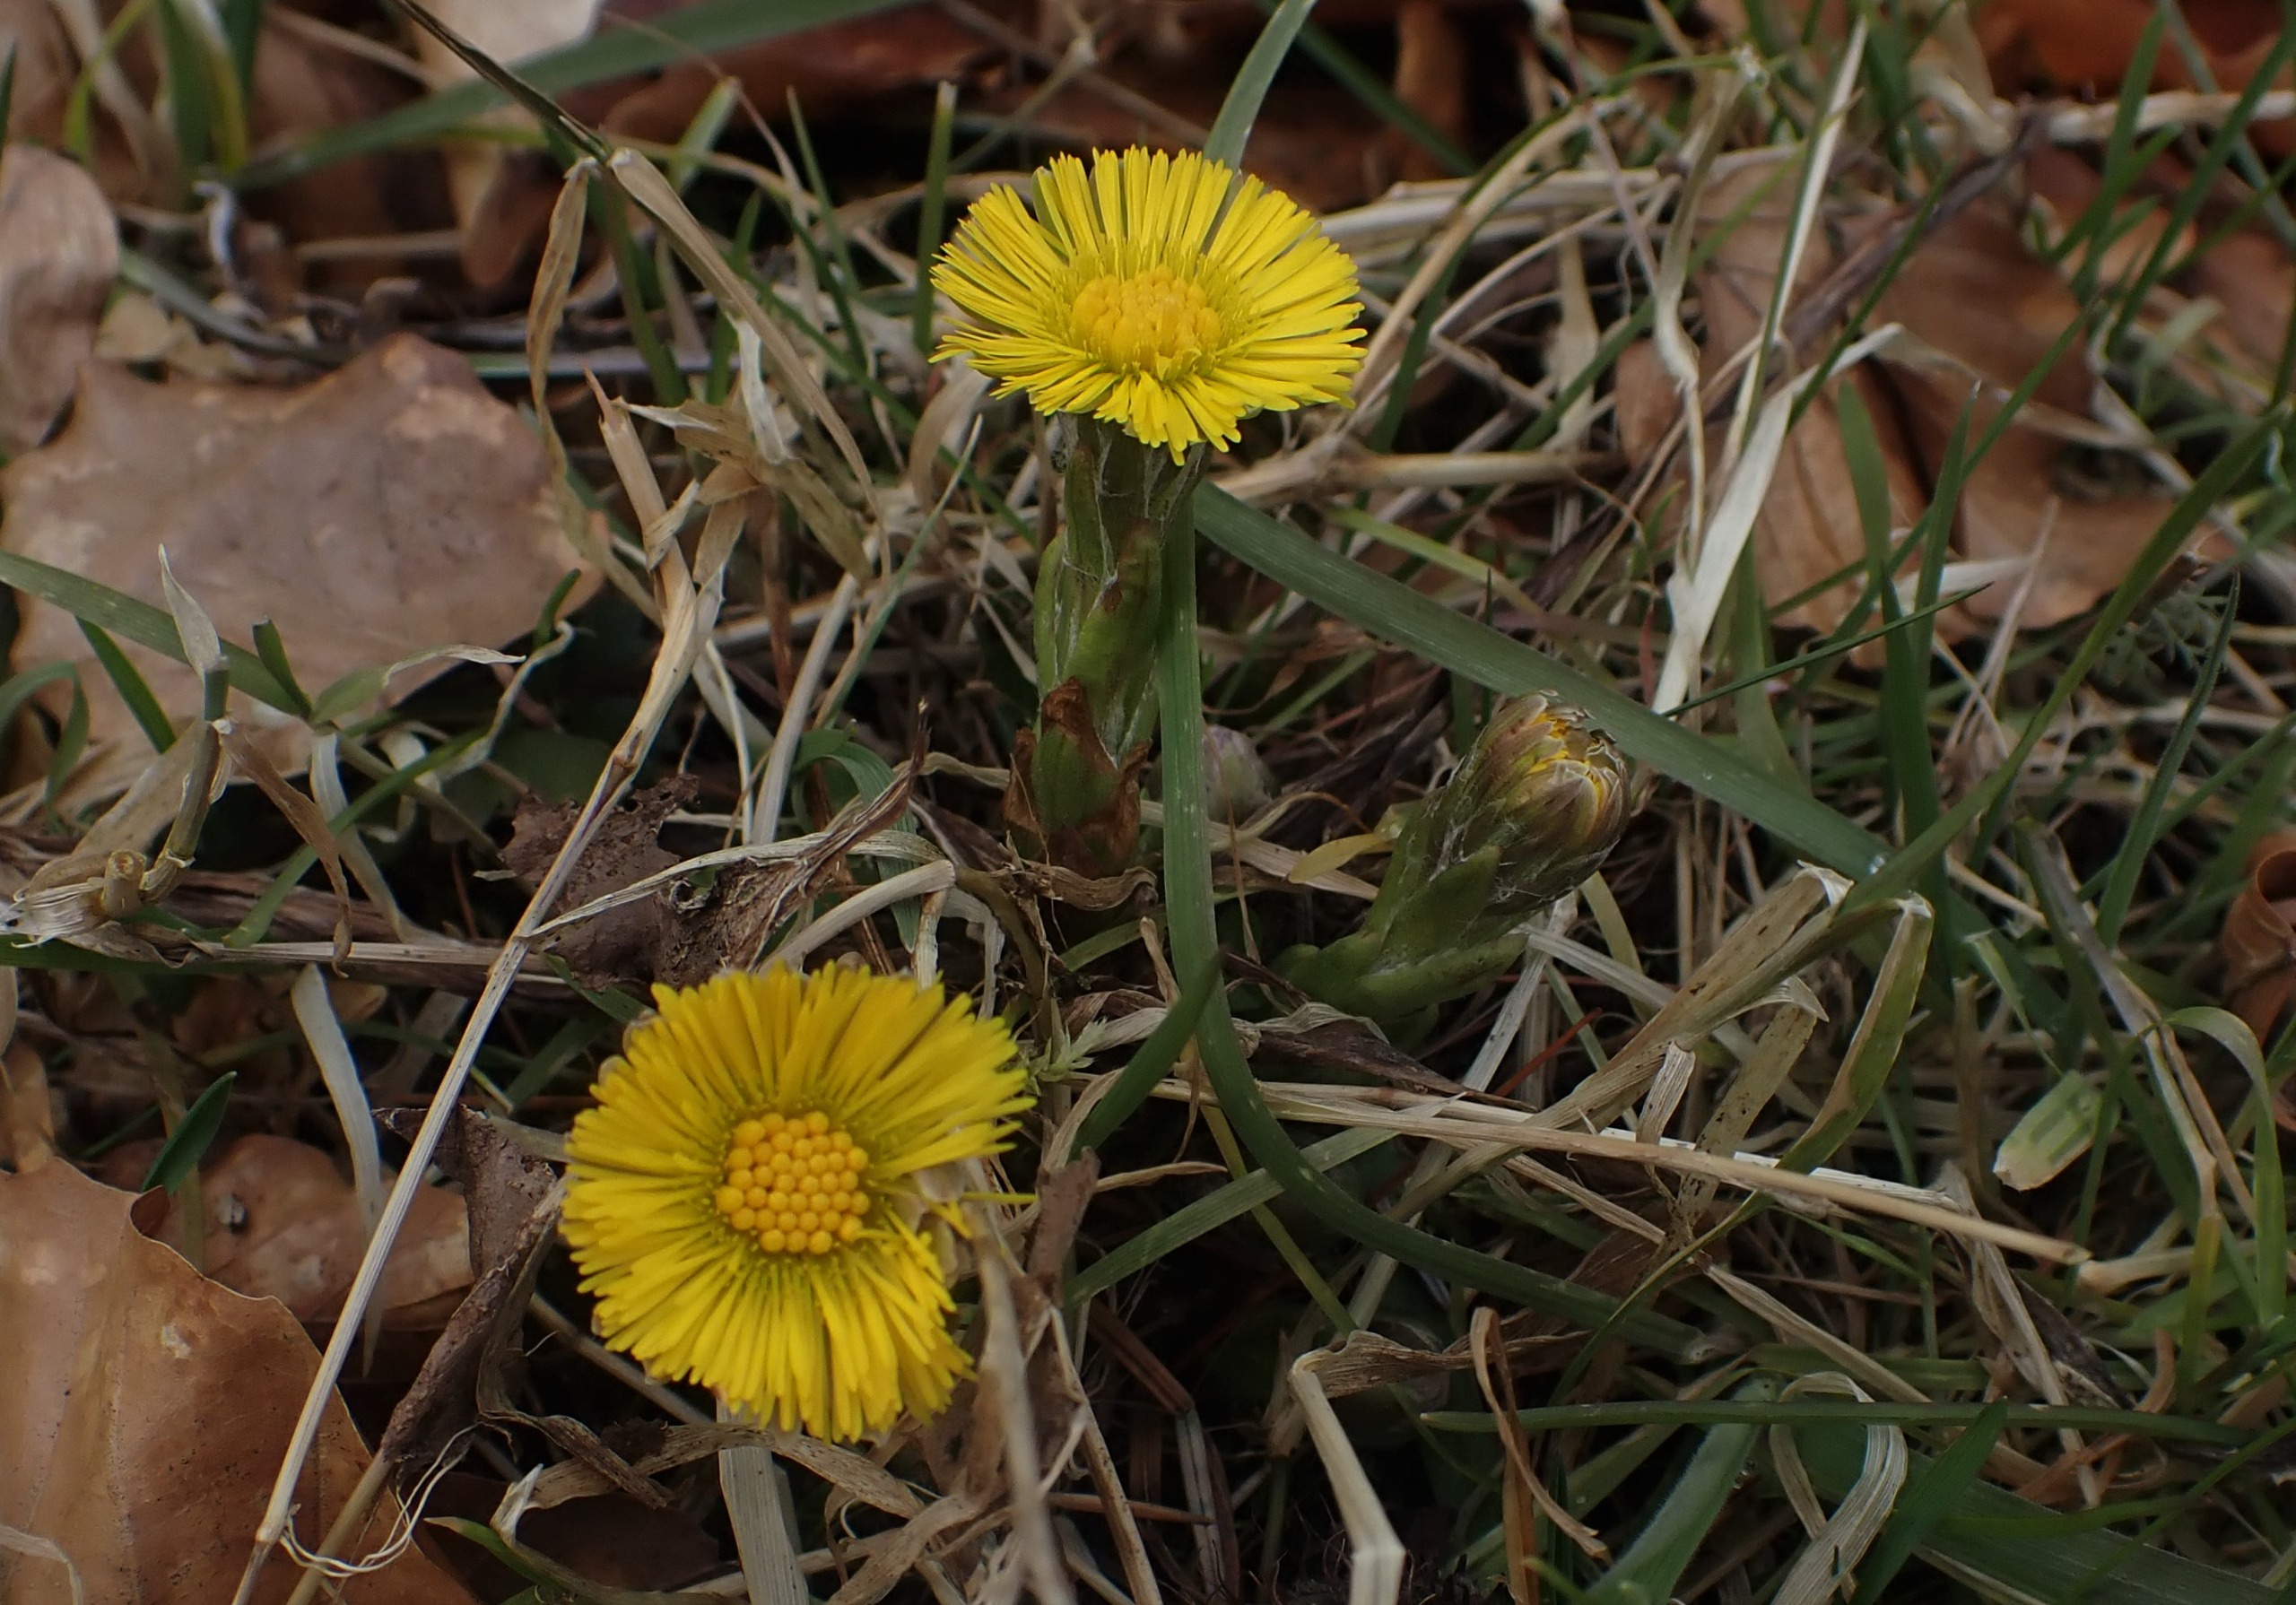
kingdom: Plantae
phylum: Tracheophyta
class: Magnoliopsida
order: Asterales
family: Asteraceae
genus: Tussilago
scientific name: Tussilago farfara
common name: Følfod
